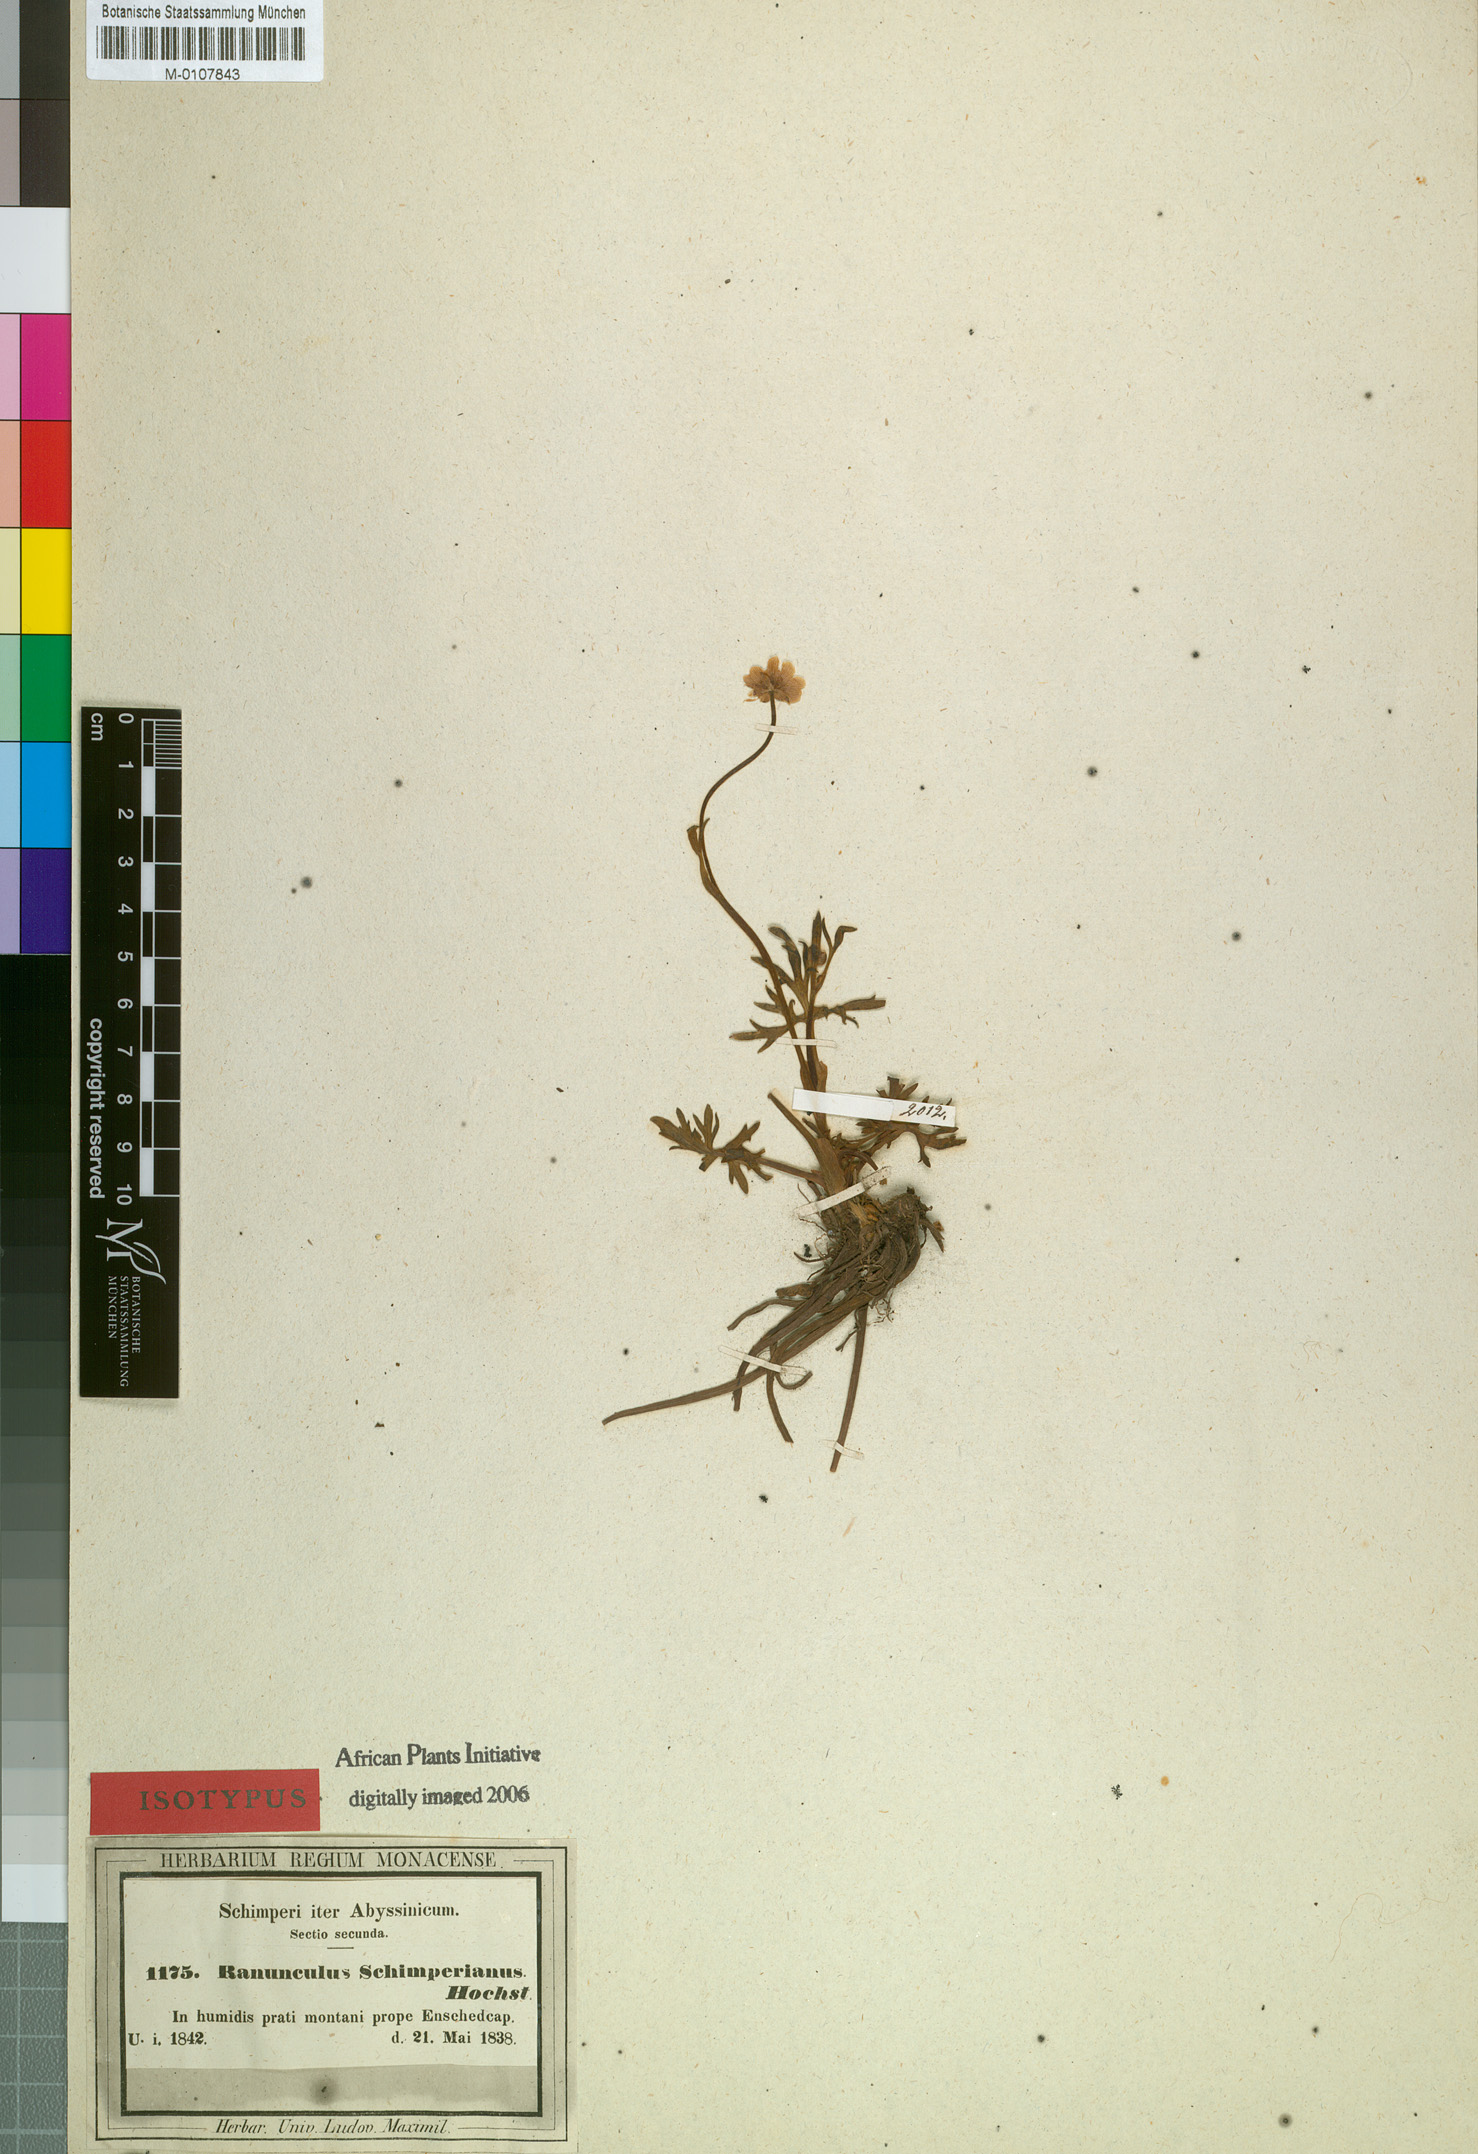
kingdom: Plantae
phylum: Tracheophyta
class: Magnoliopsida
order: Ranunculales
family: Ranunculaceae
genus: Ranunculus
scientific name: Ranunculus simensis
